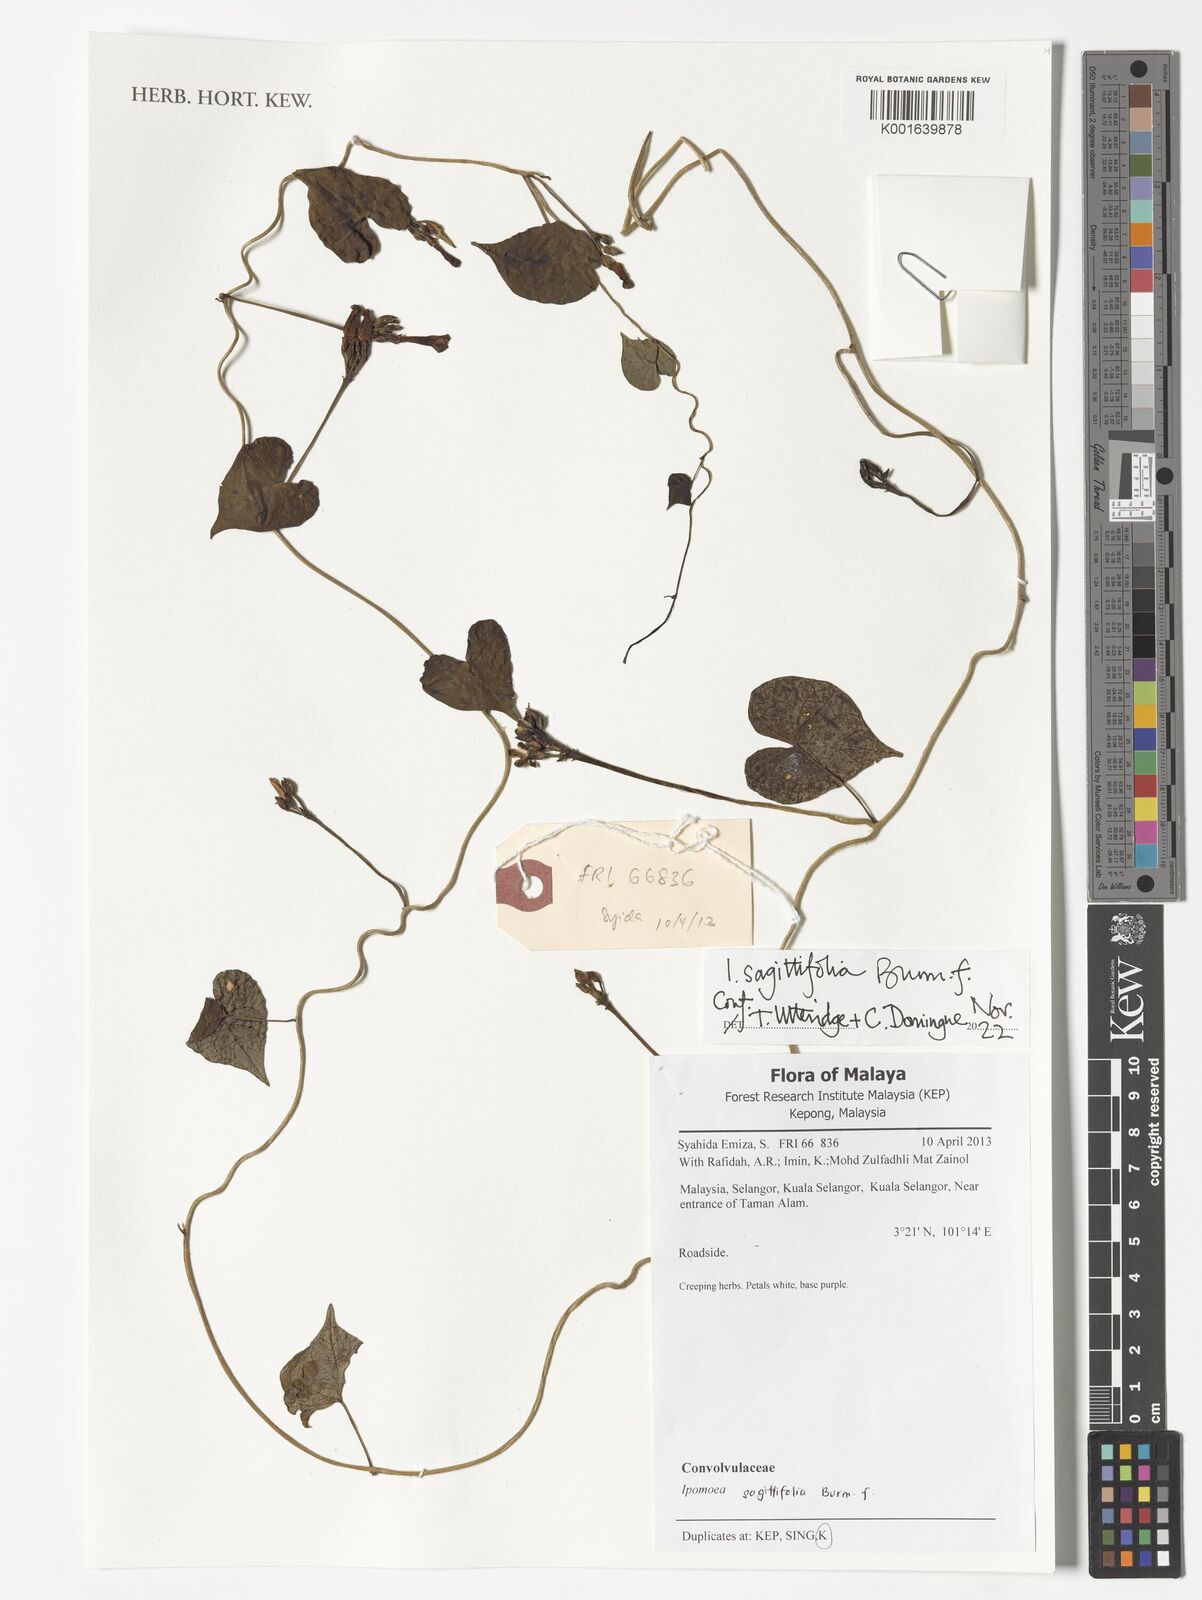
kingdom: Plantae
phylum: Tracheophyta
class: Magnoliopsida
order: Solanales
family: Convolvulaceae
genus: Ipomoea
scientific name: Ipomoea sagittifolia
